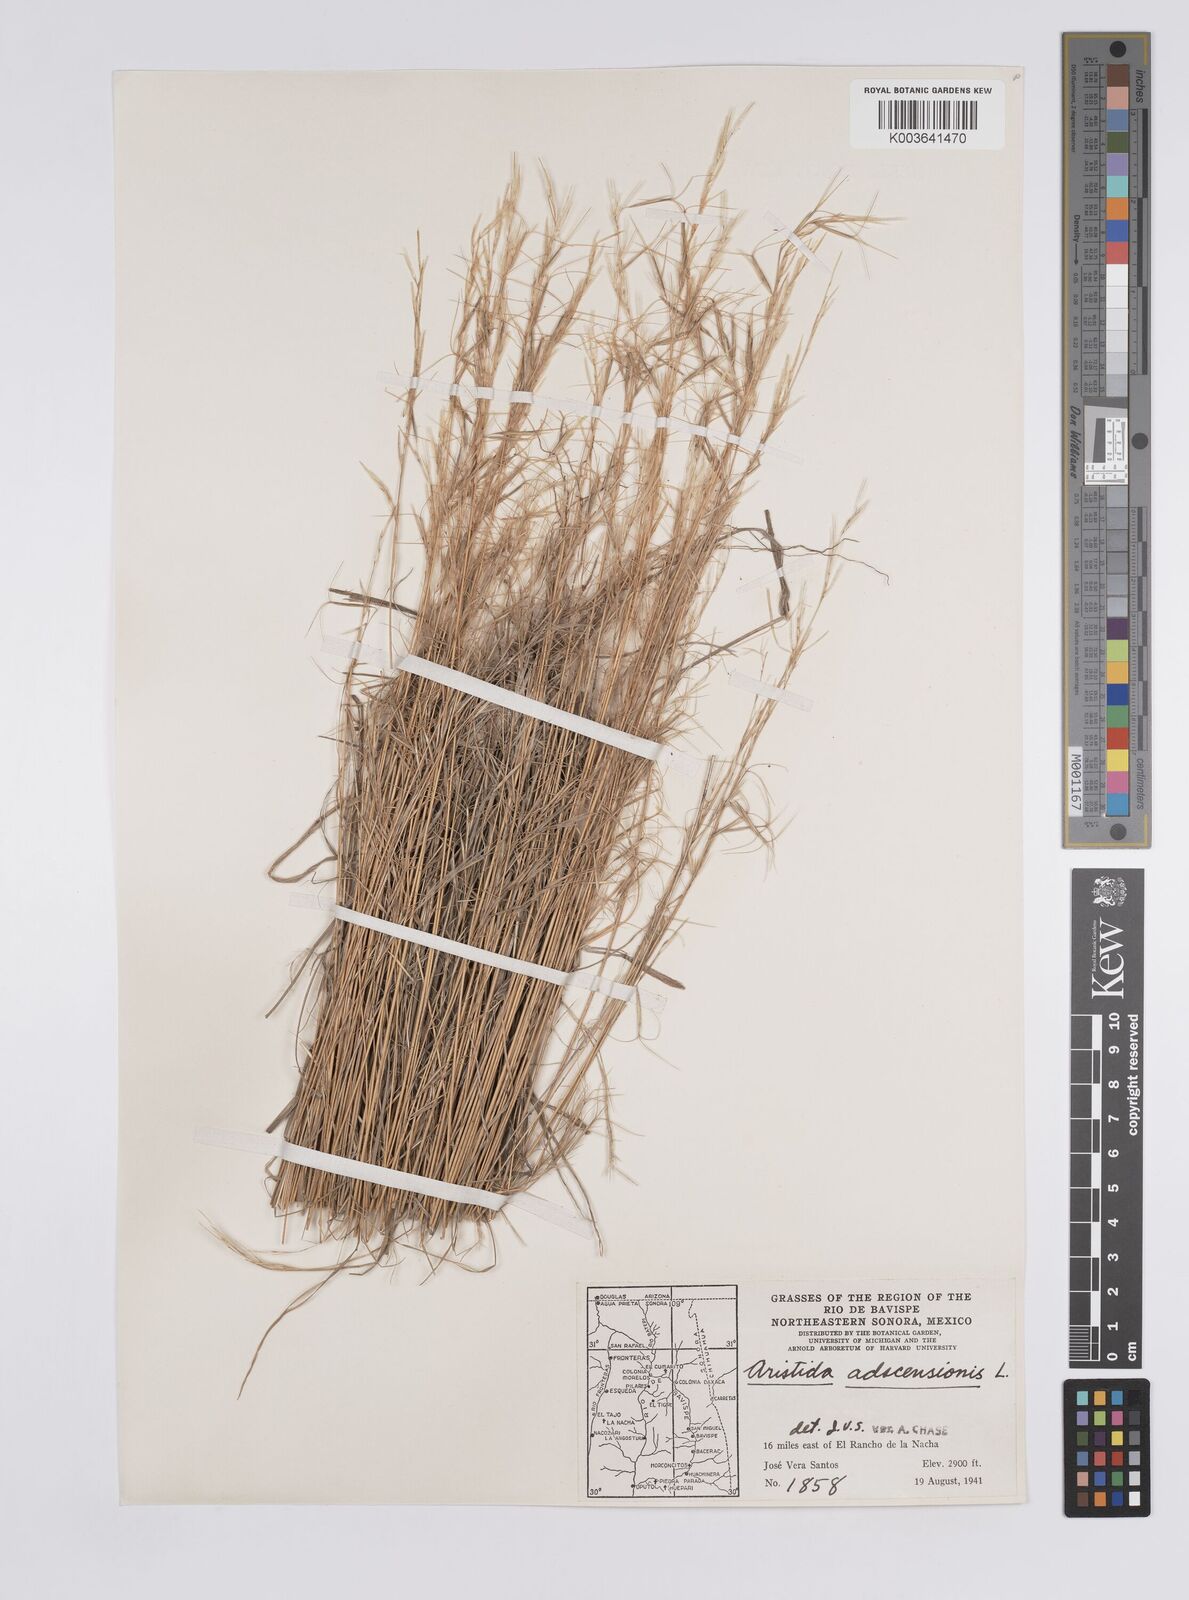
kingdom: Plantae
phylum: Tracheophyta
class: Liliopsida
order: Poales
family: Poaceae
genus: Aristida
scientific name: Aristida adscensionis
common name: Sixweeks threeawn
